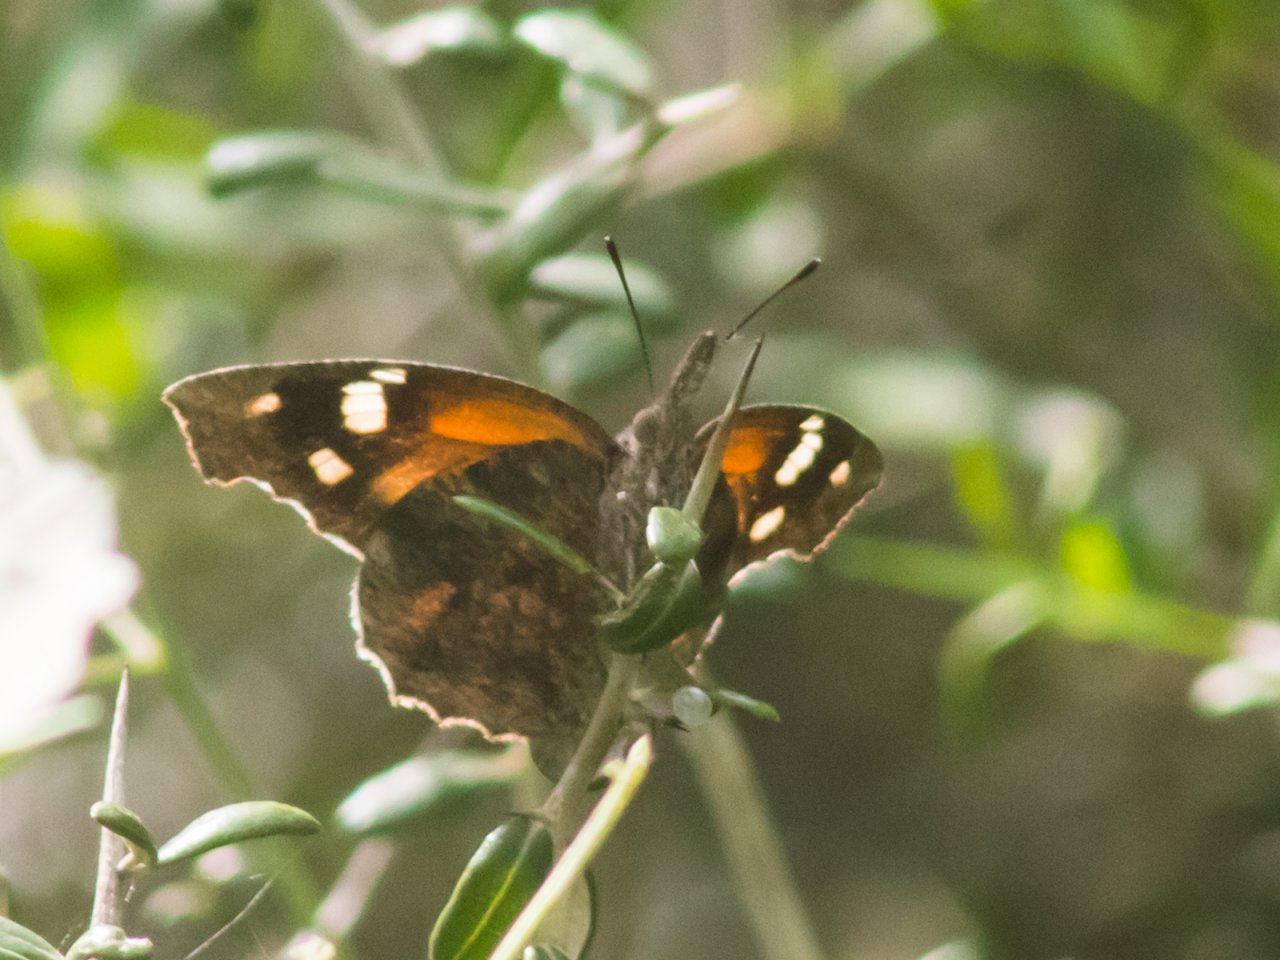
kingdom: Animalia
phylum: Arthropoda
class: Insecta
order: Lepidoptera
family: Nymphalidae
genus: Libytheana
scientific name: Libytheana carinenta
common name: American Snout
